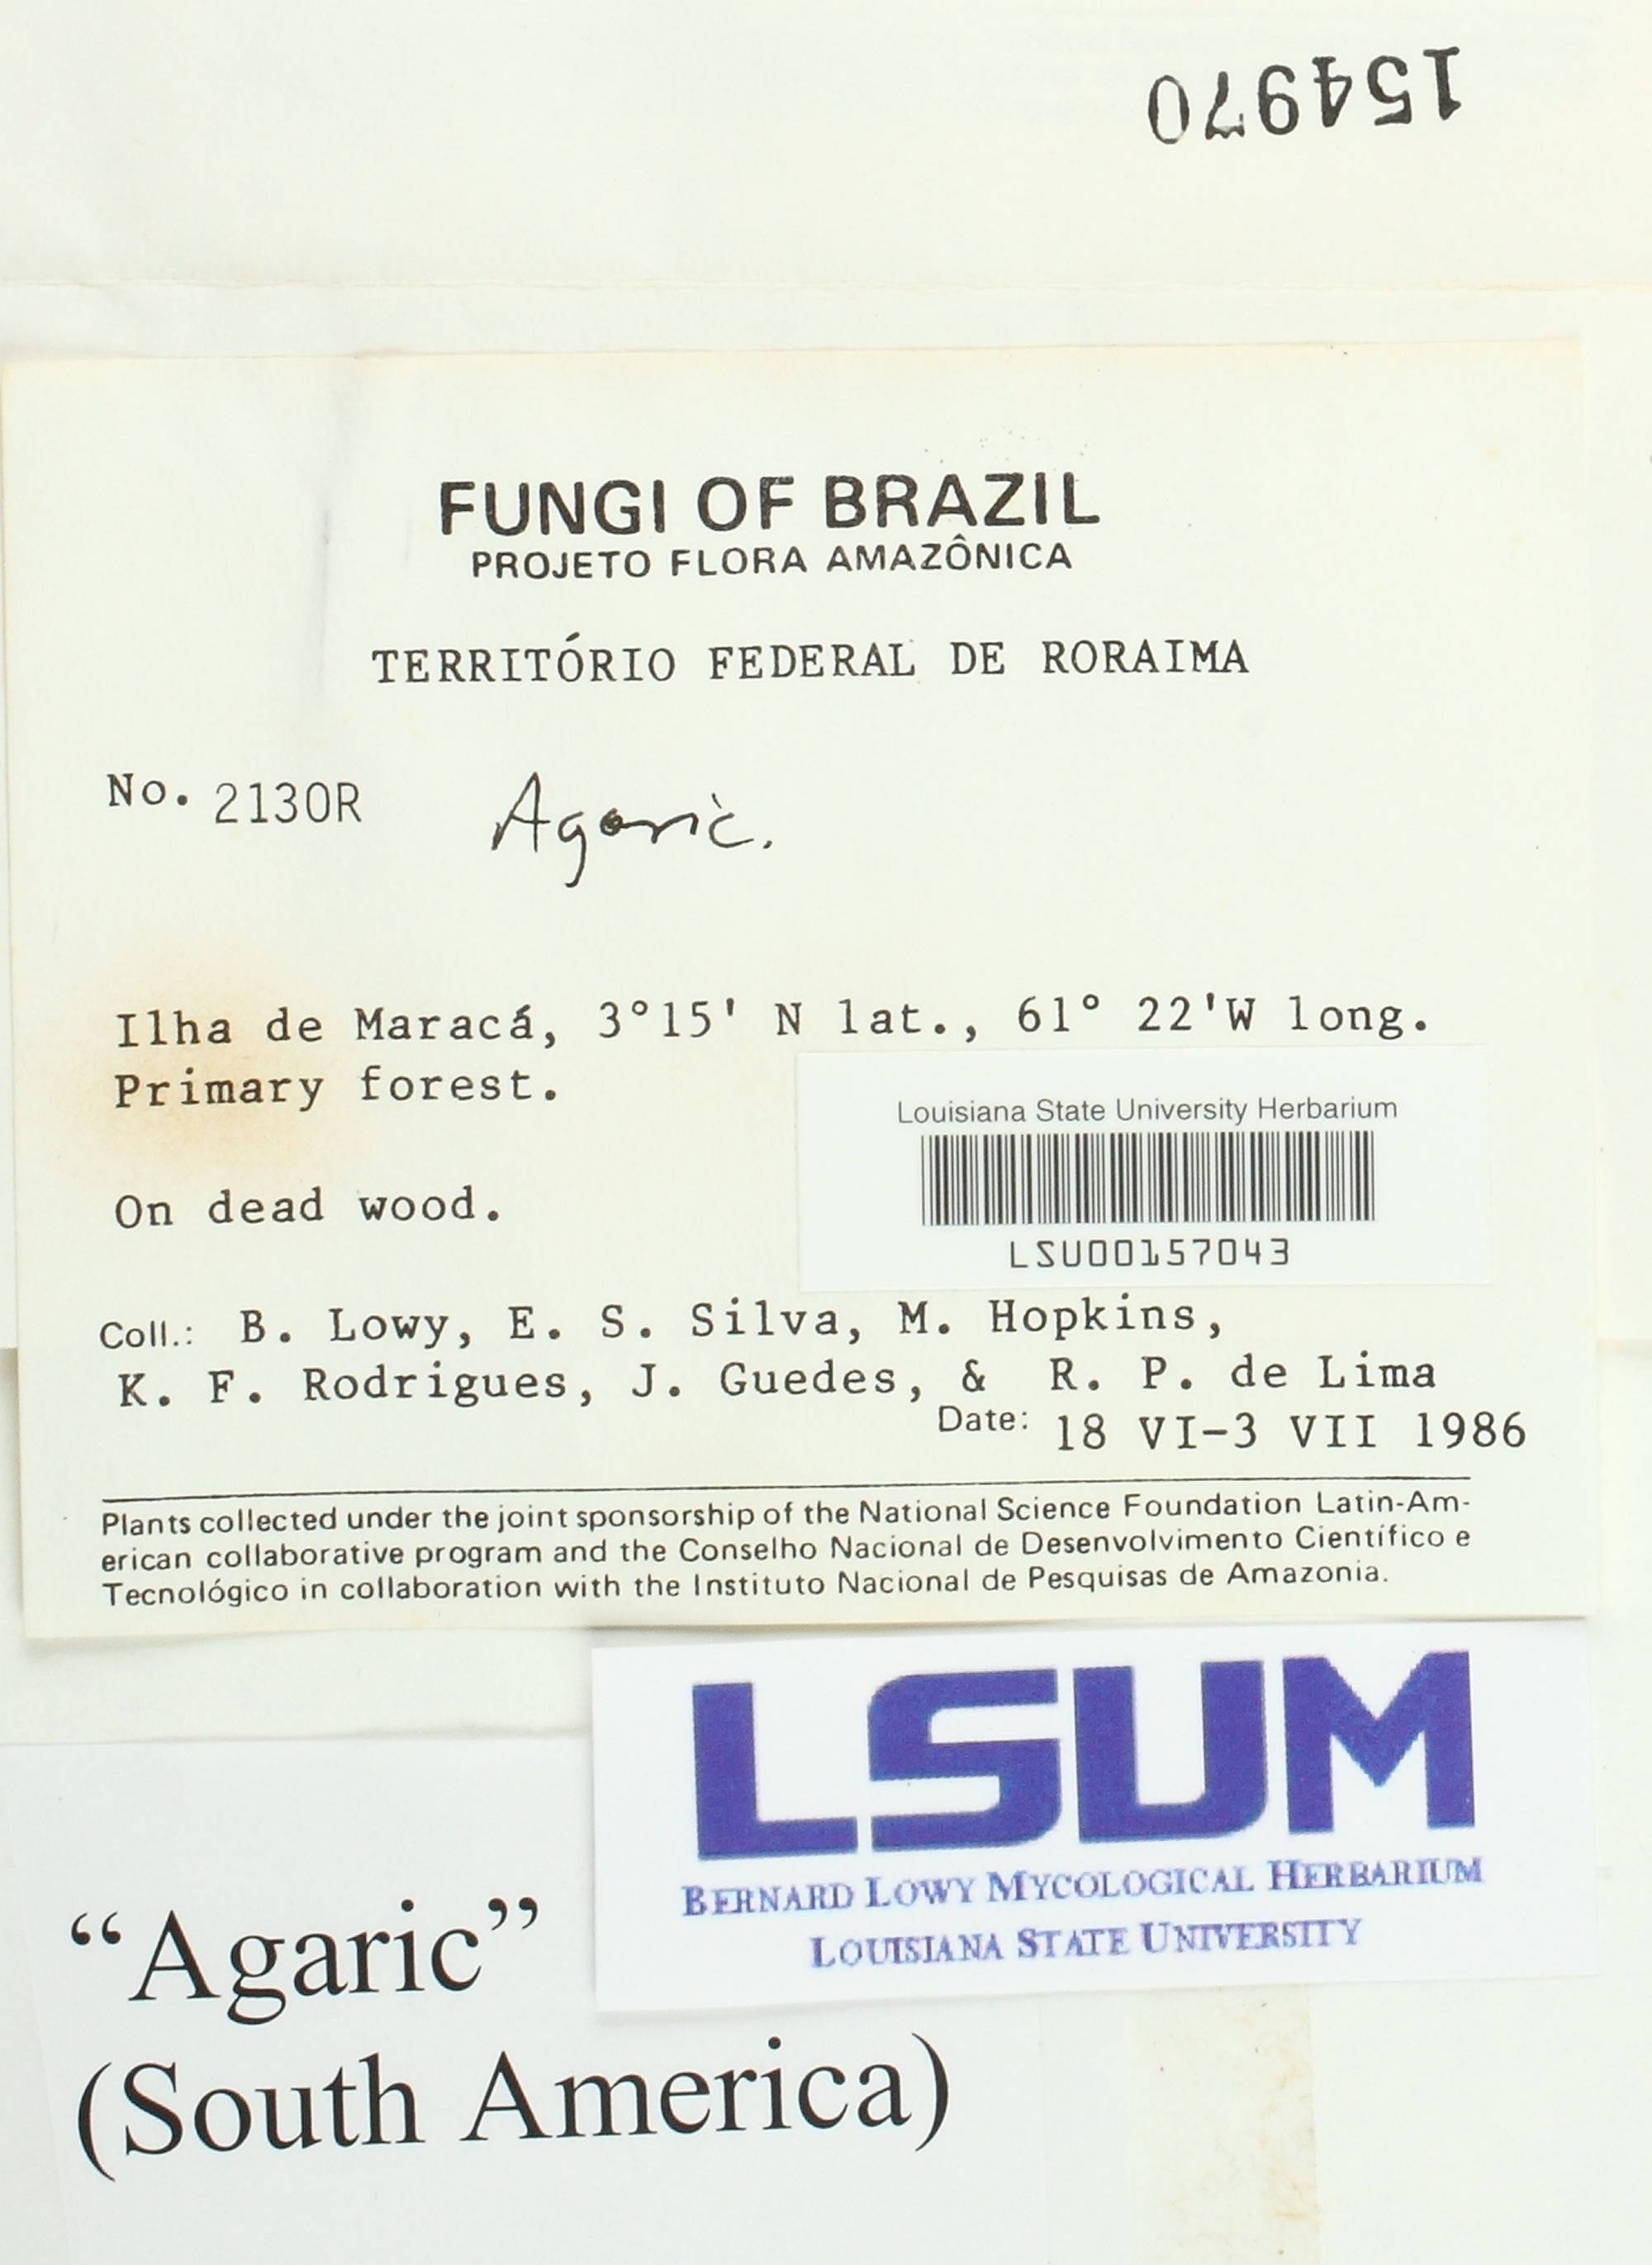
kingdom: Fungi
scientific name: Fungi
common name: Fungi
